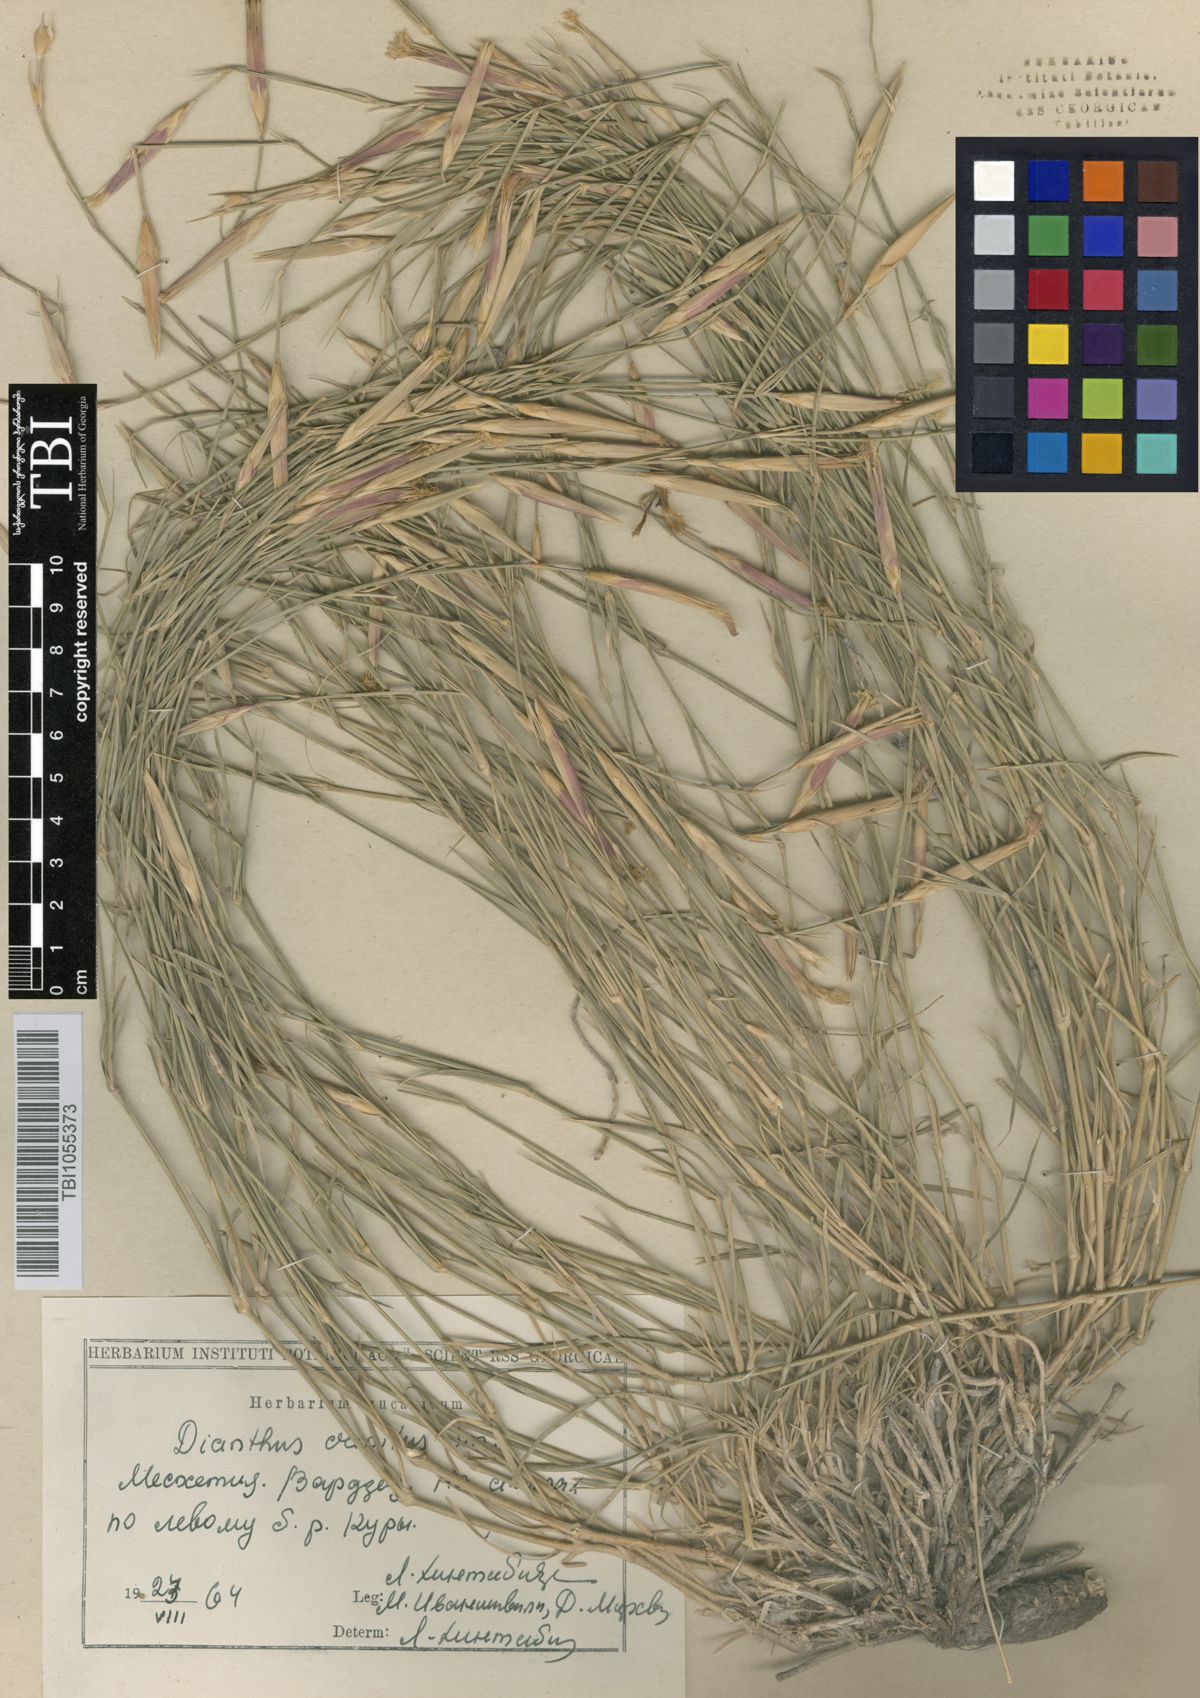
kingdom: Plantae
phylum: Tracheophyta
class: Magnoliopsida
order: Caryophyllales
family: Caryophyllaceae
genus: Dianthus
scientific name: Dianthus crinitus
